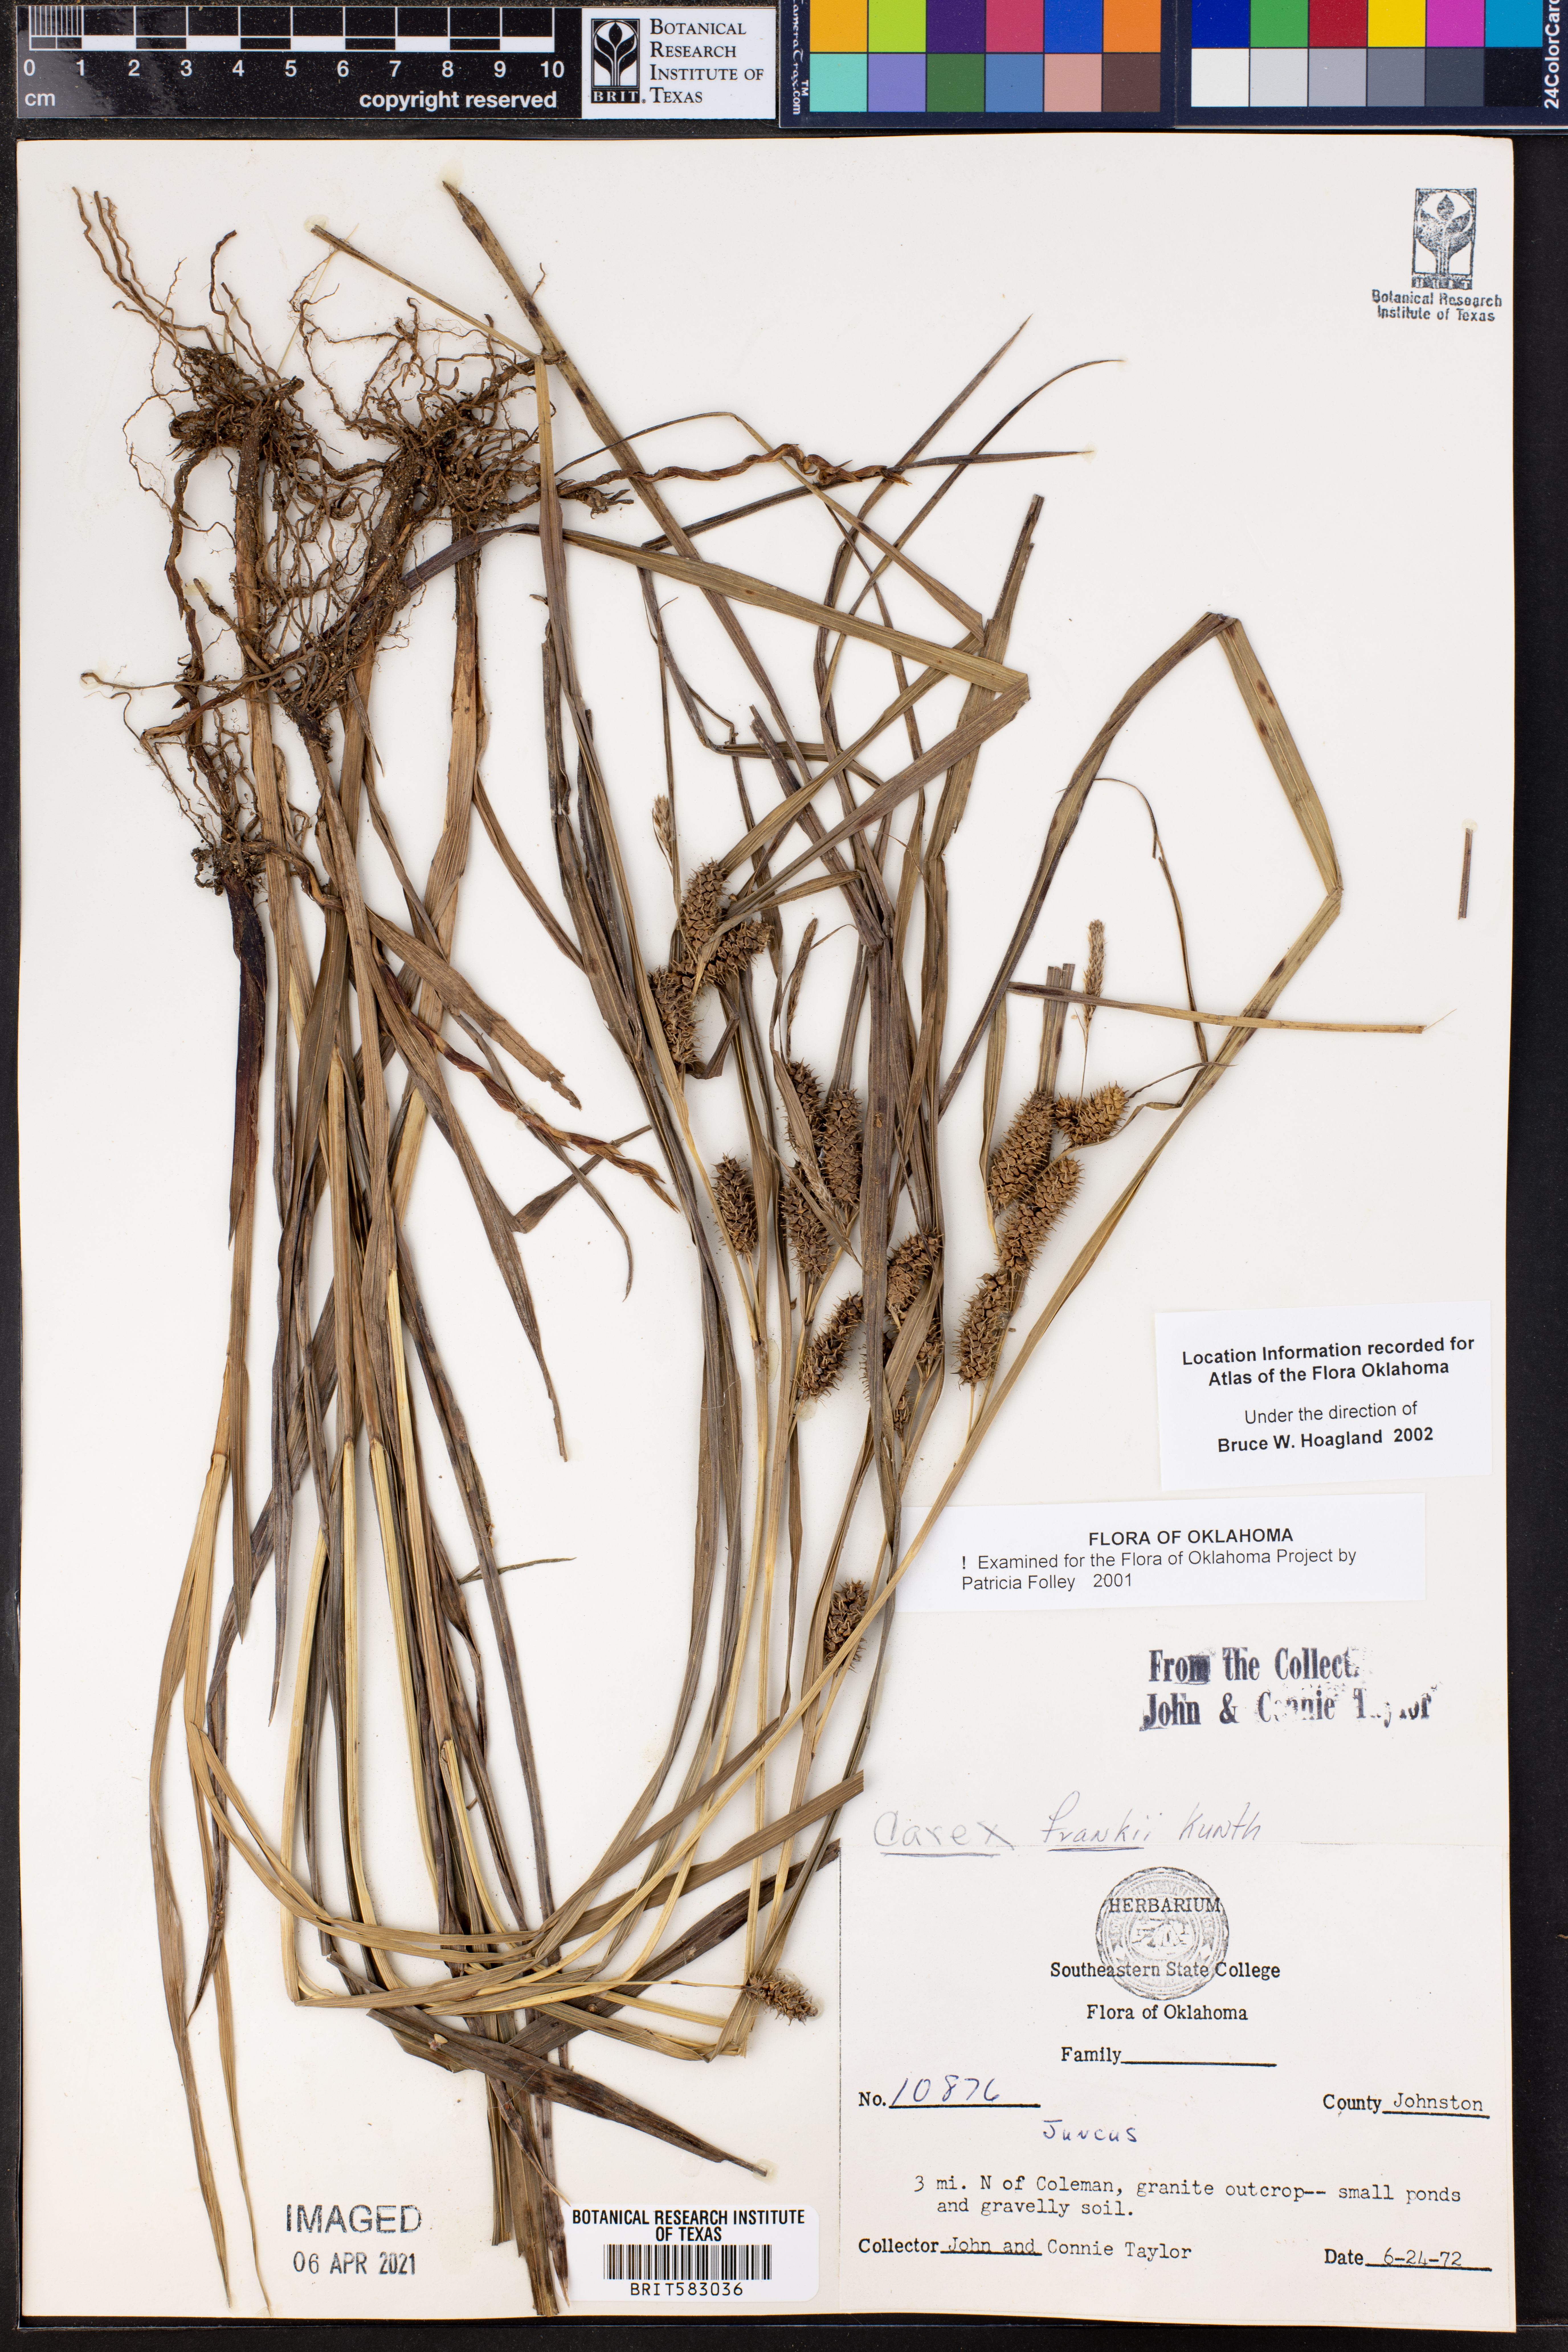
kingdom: Plantae
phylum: Tracheophyta
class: Liliopsida
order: Poales
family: Cyperaceae
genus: Carex
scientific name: Carex frankii
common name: Frank's sedge
